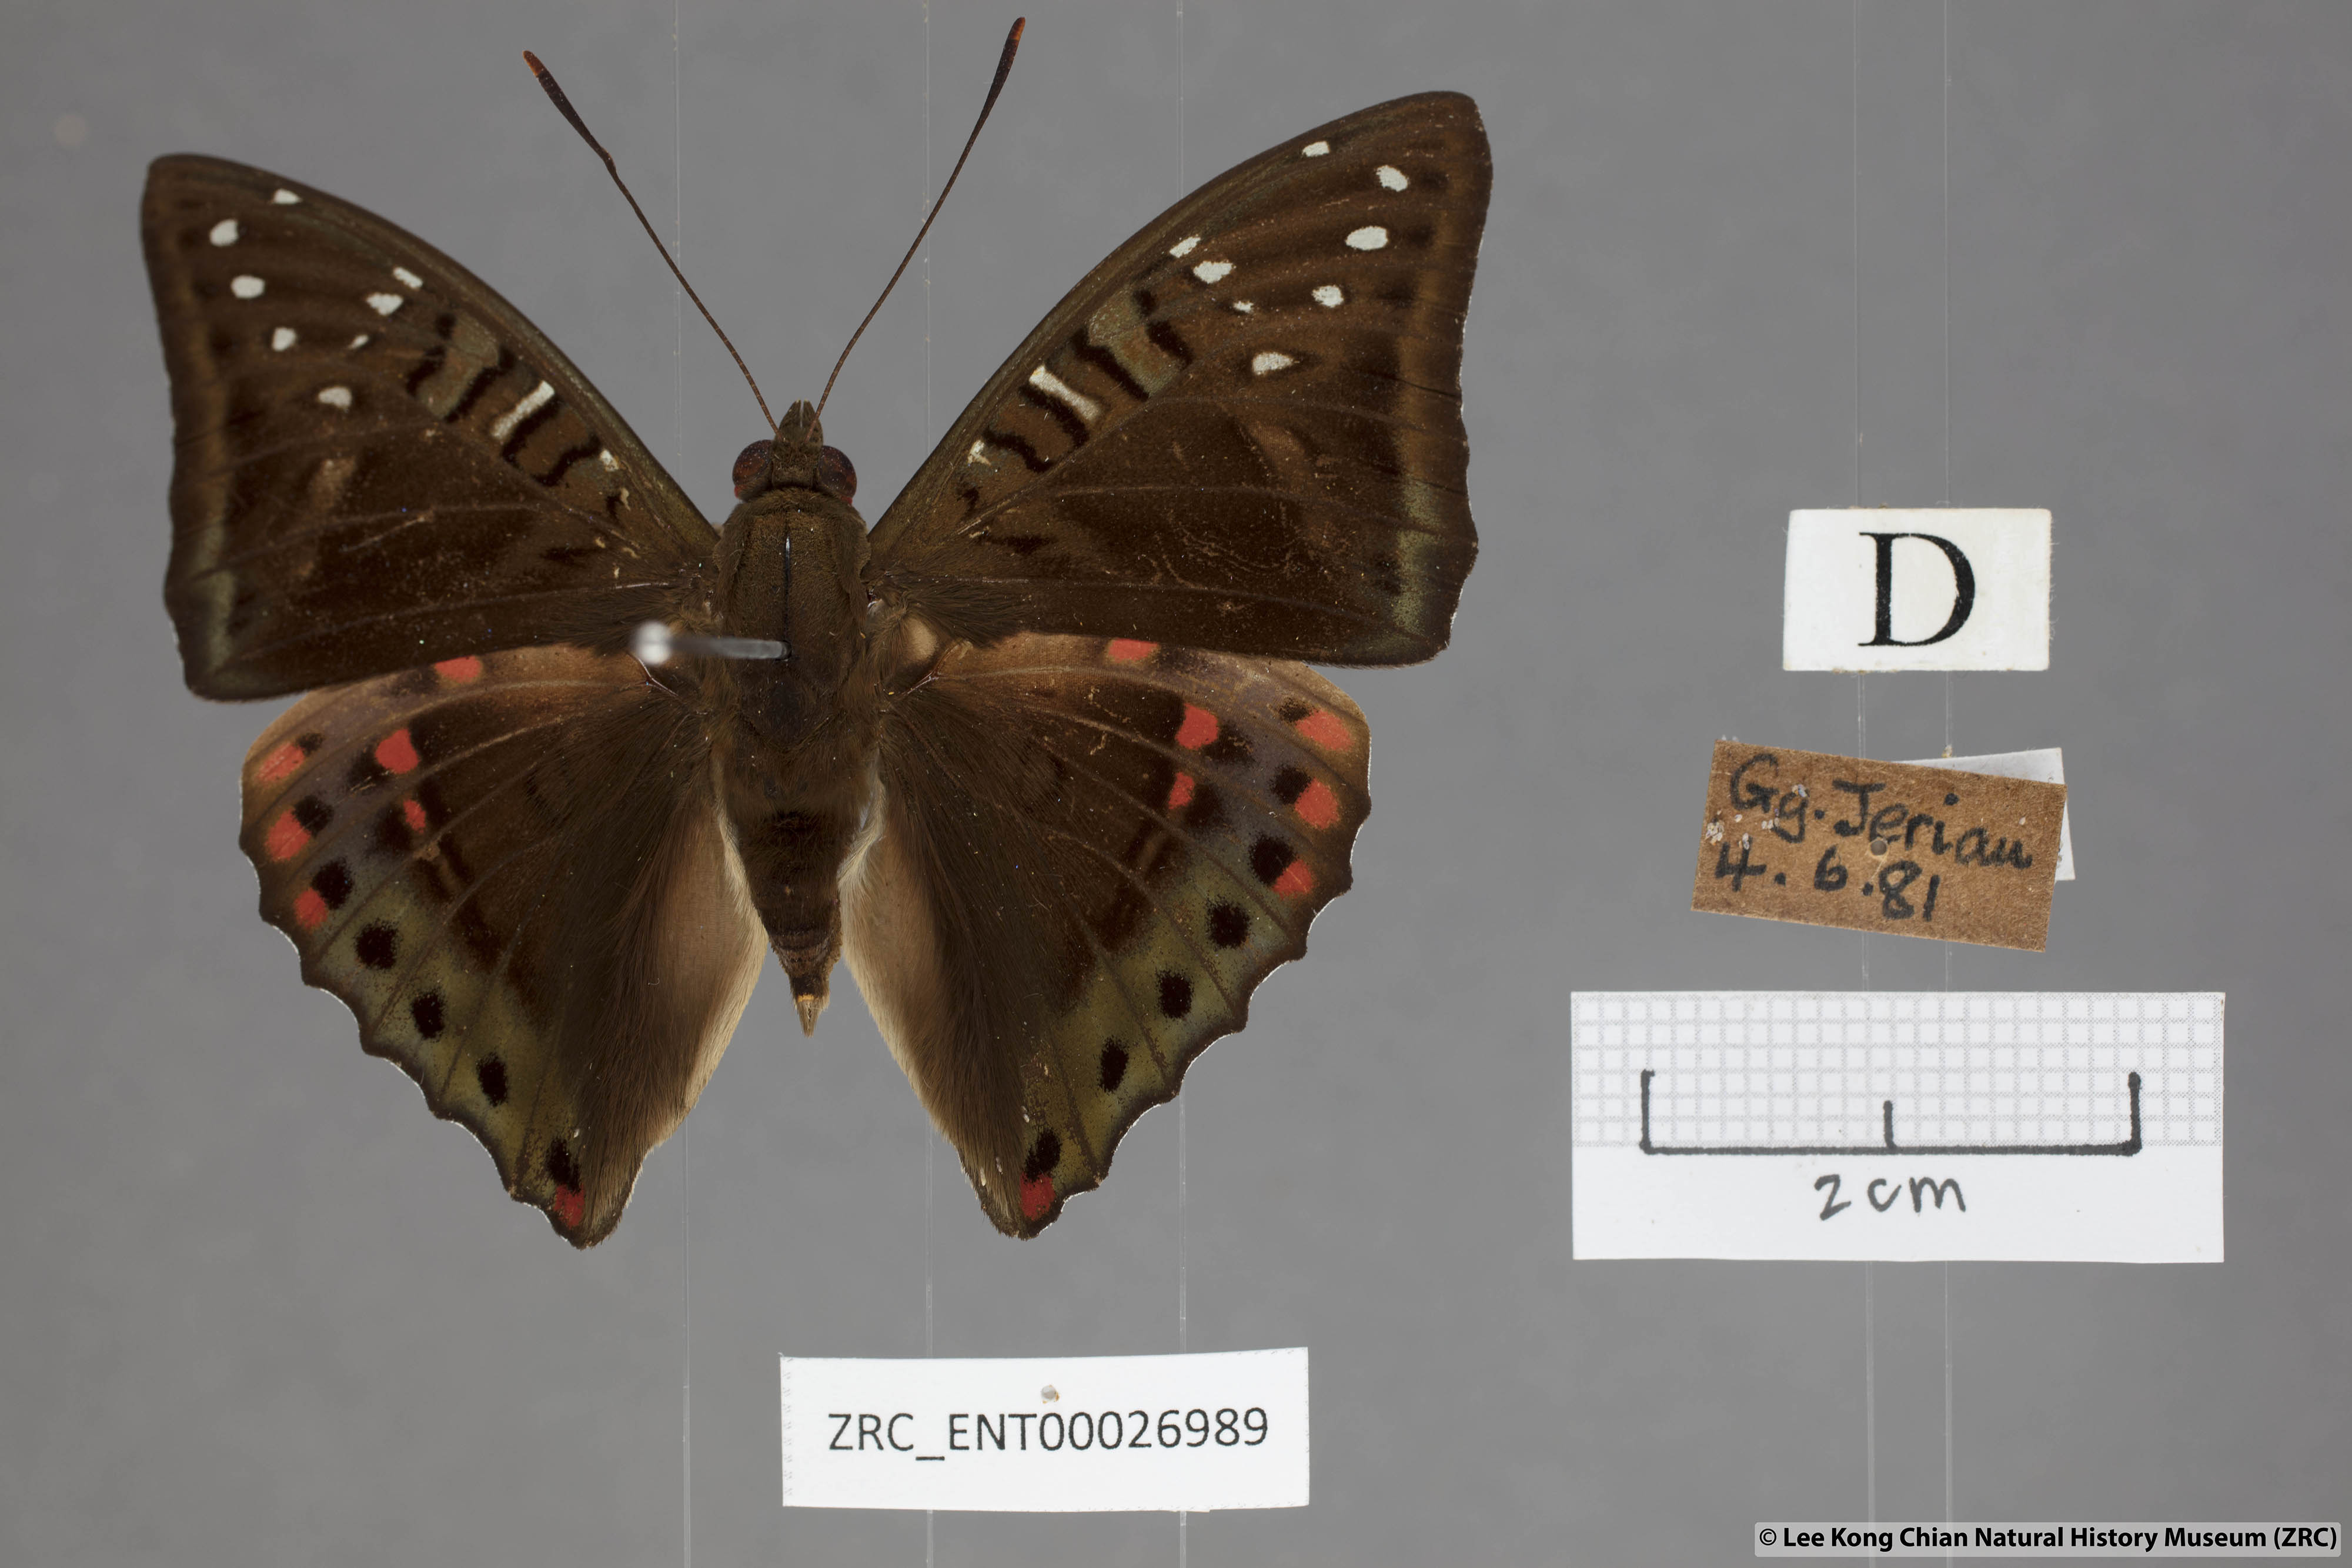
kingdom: Animalia
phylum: Arthropoda
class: Insecta
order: Lepidoptera
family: Nymphalidae
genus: Euthalia
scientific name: Euthalia whiteheadi
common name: Tri-coloured baron
